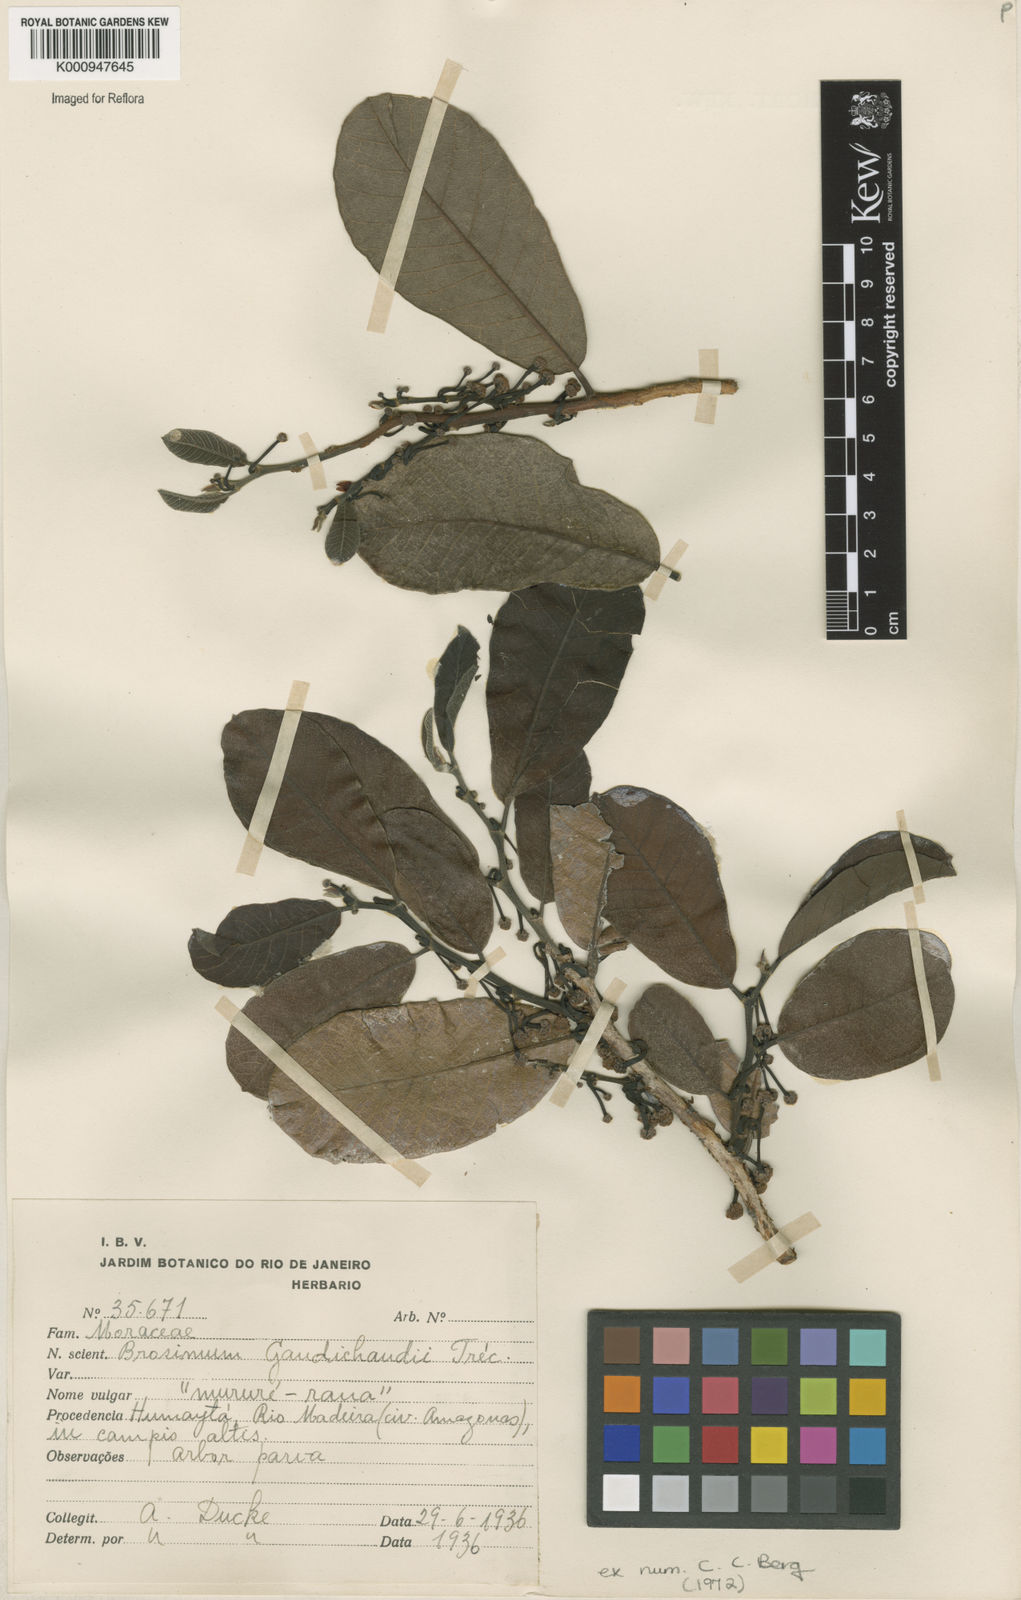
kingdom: Plantae
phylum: Tracheophyta
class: Magnoliopsida
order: Rosales
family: Moraceae
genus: Brosimum
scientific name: Brosimum
